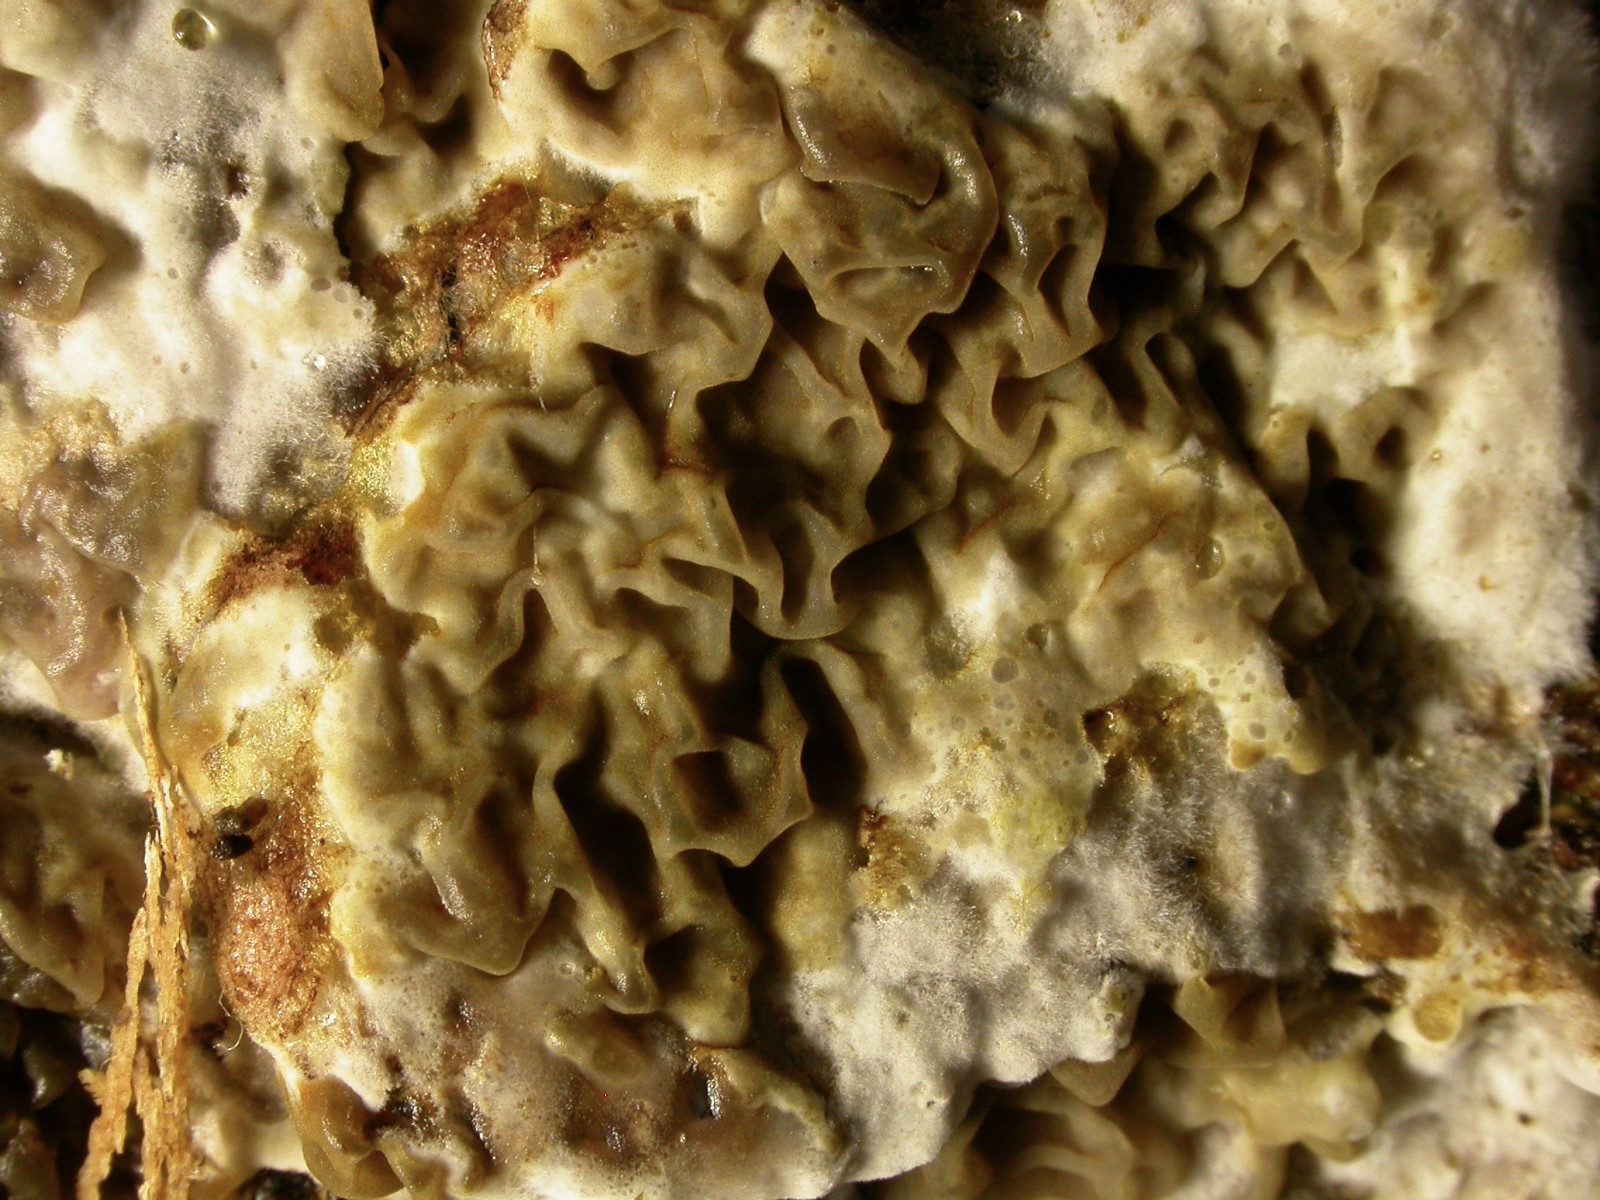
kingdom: Fungi
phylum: Basidiomycota
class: Agaricomycetes
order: Boletales
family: Serpulaceae
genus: Serpula
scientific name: Serpula himantioides
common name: tyndkødet hussvamp
